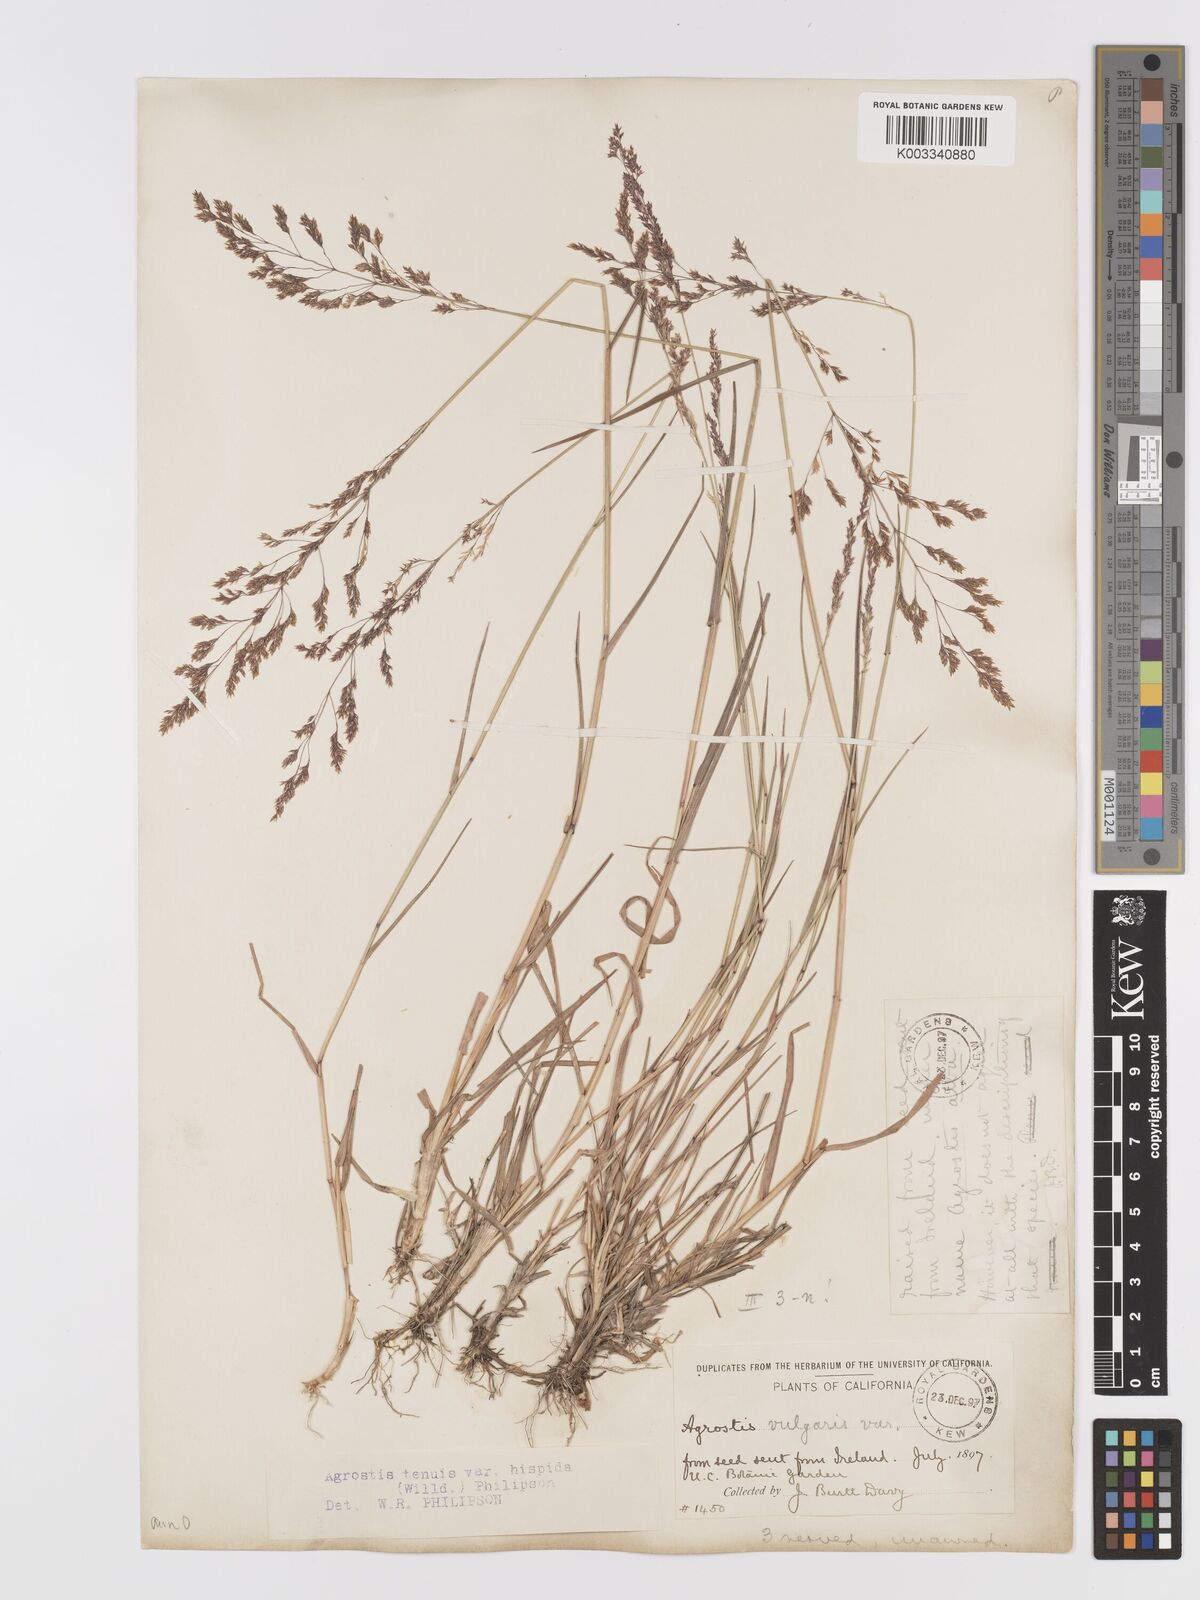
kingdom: Plantae
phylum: Tracheophyta
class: Liliopsida
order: Poales
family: Poaceae
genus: Agrostis
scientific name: Agrostis capillaris
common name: Colonial bentgrass
